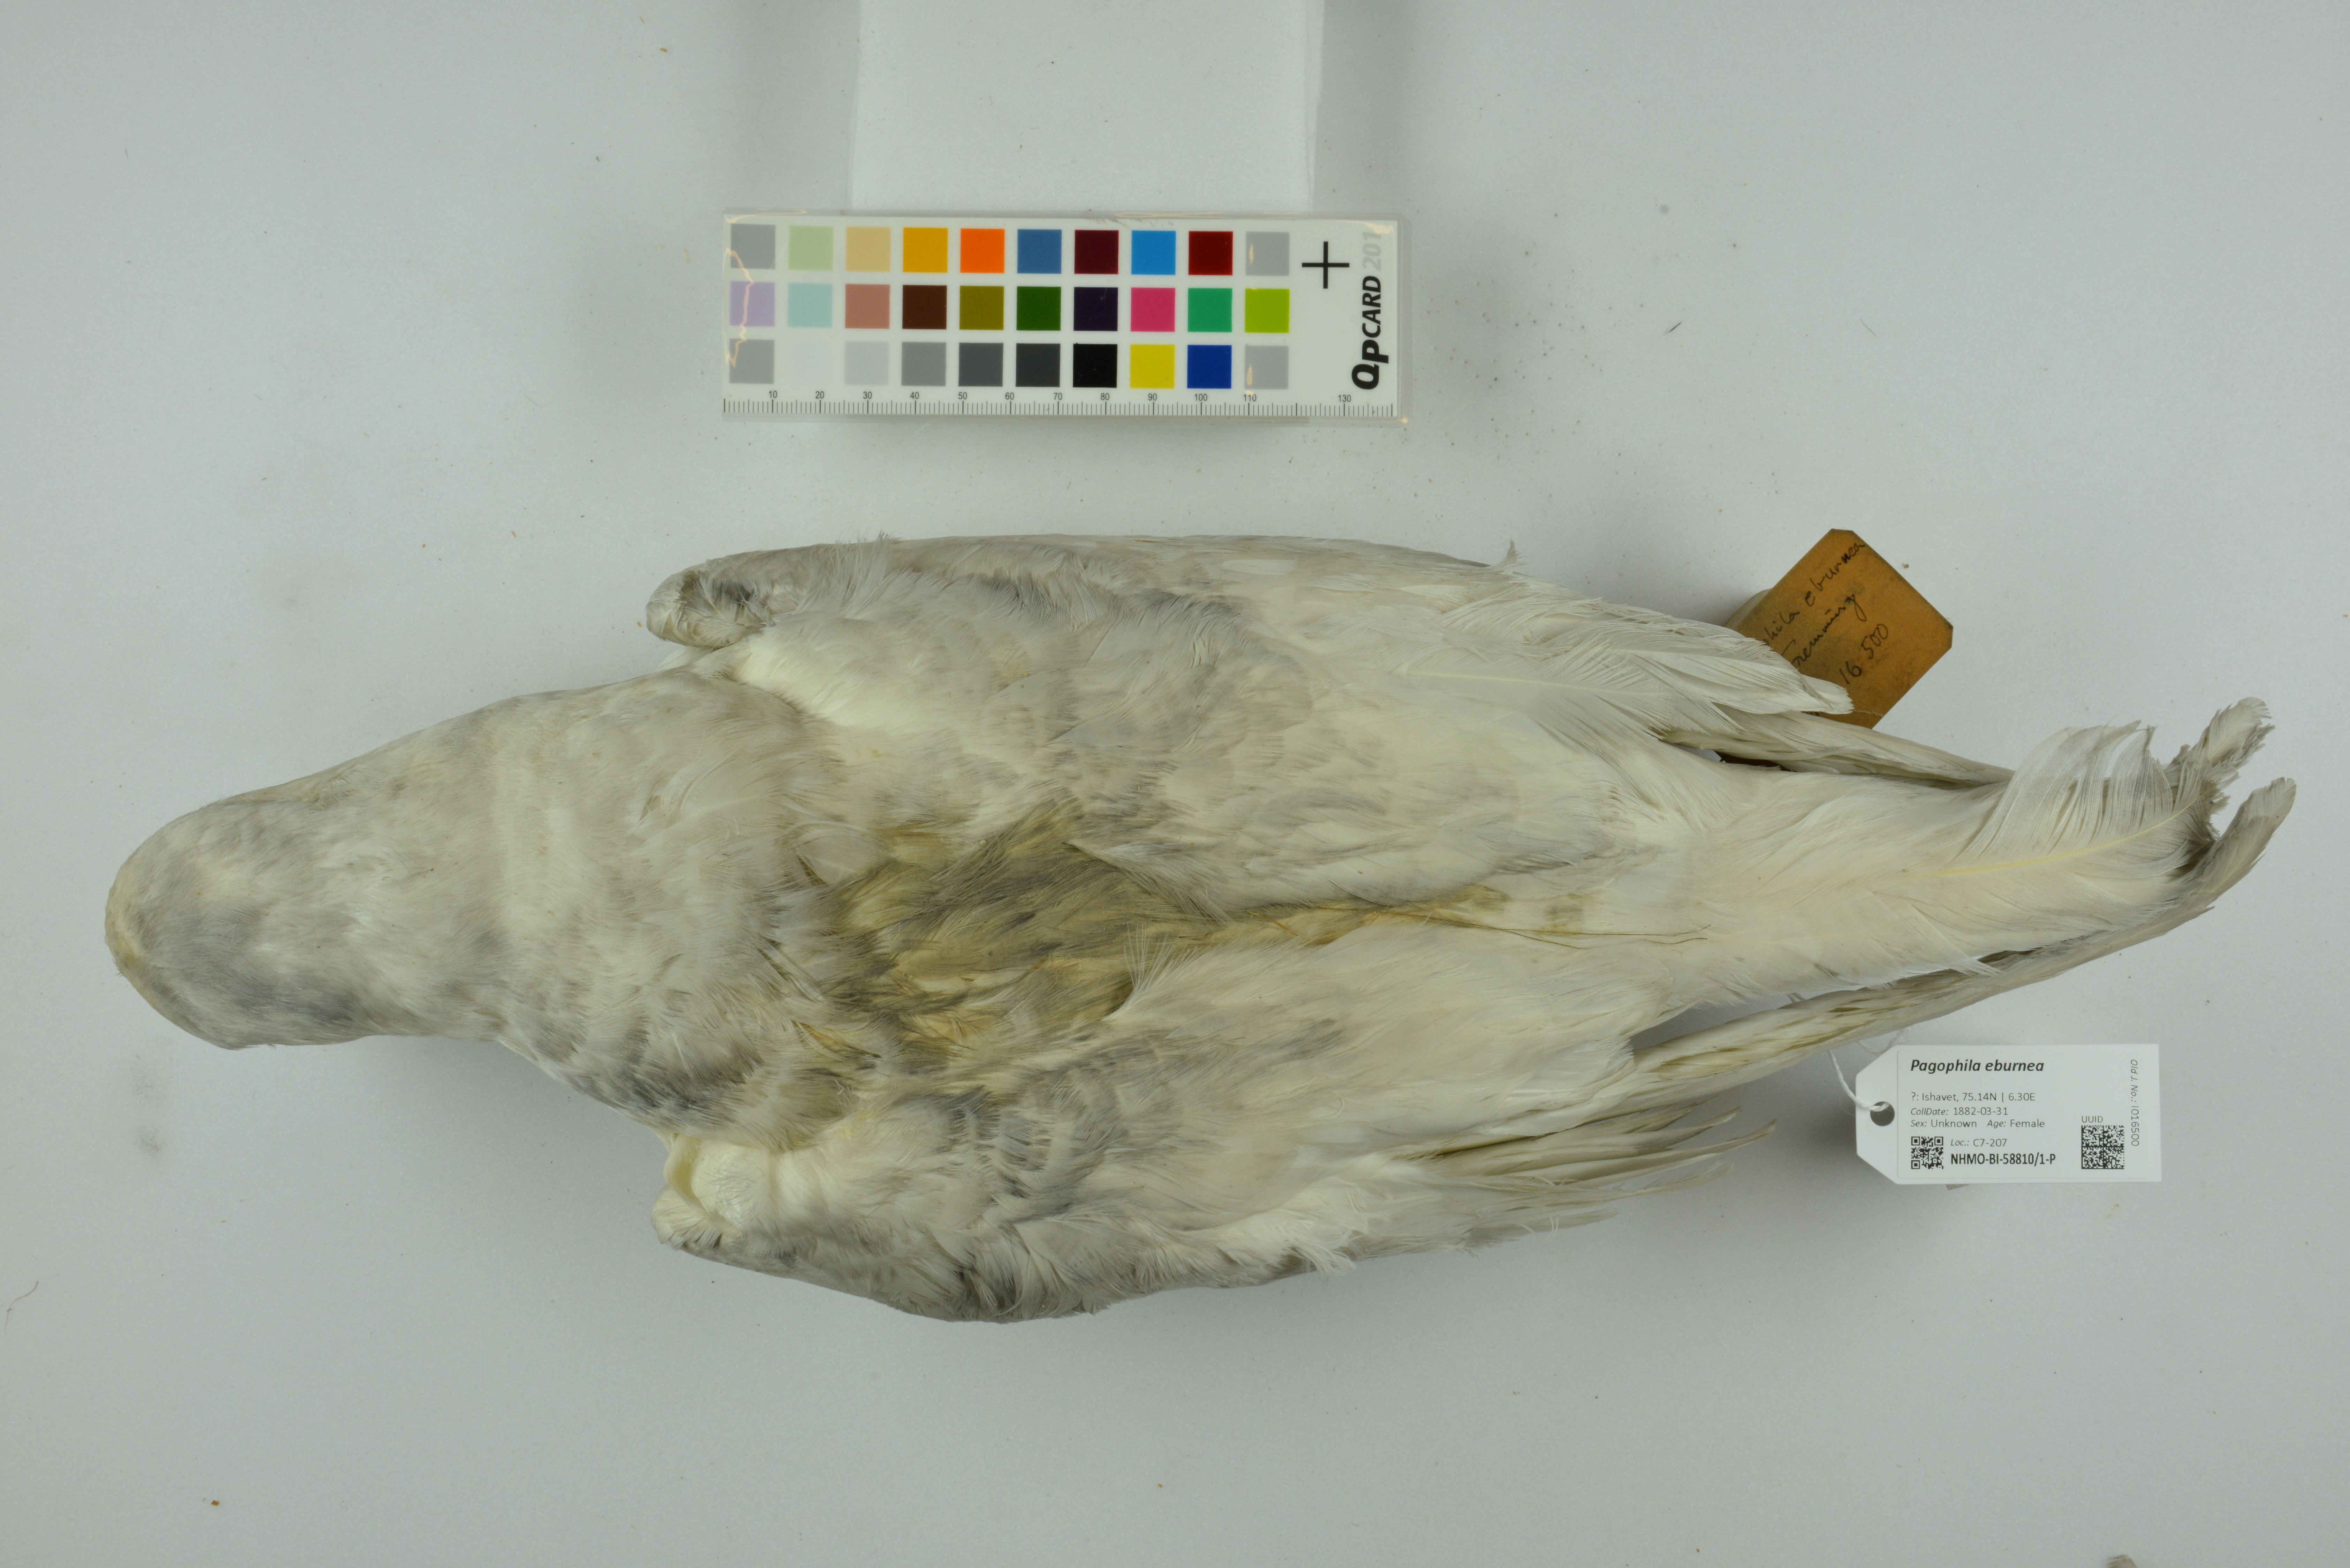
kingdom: Animalia
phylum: Chordata
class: Aves
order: Charadriiformes
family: Laridae
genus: Pagophila
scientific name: Pagophila eburnea
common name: Ivory gull
